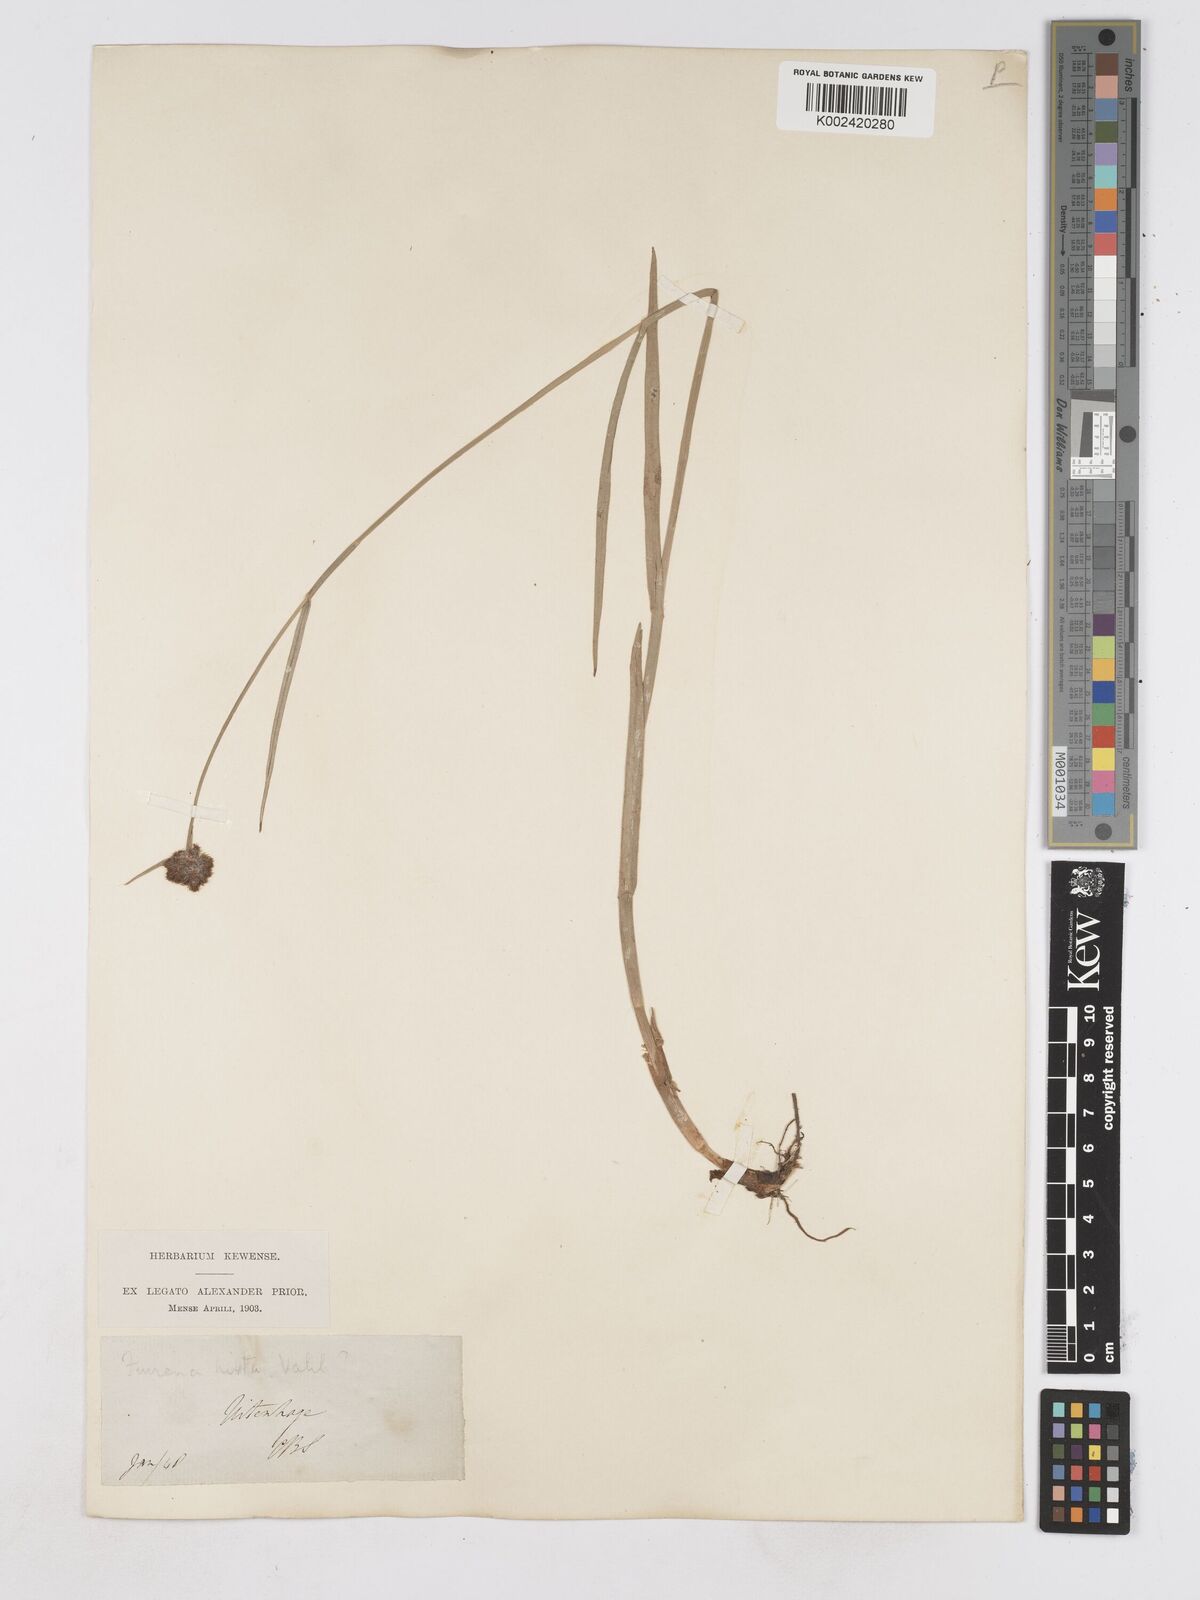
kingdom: Plantae
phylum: Tracheophyta
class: Liliopsida
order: Poales
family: Cyperaceae
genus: Fuirena
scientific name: Fuirena hirsuta
